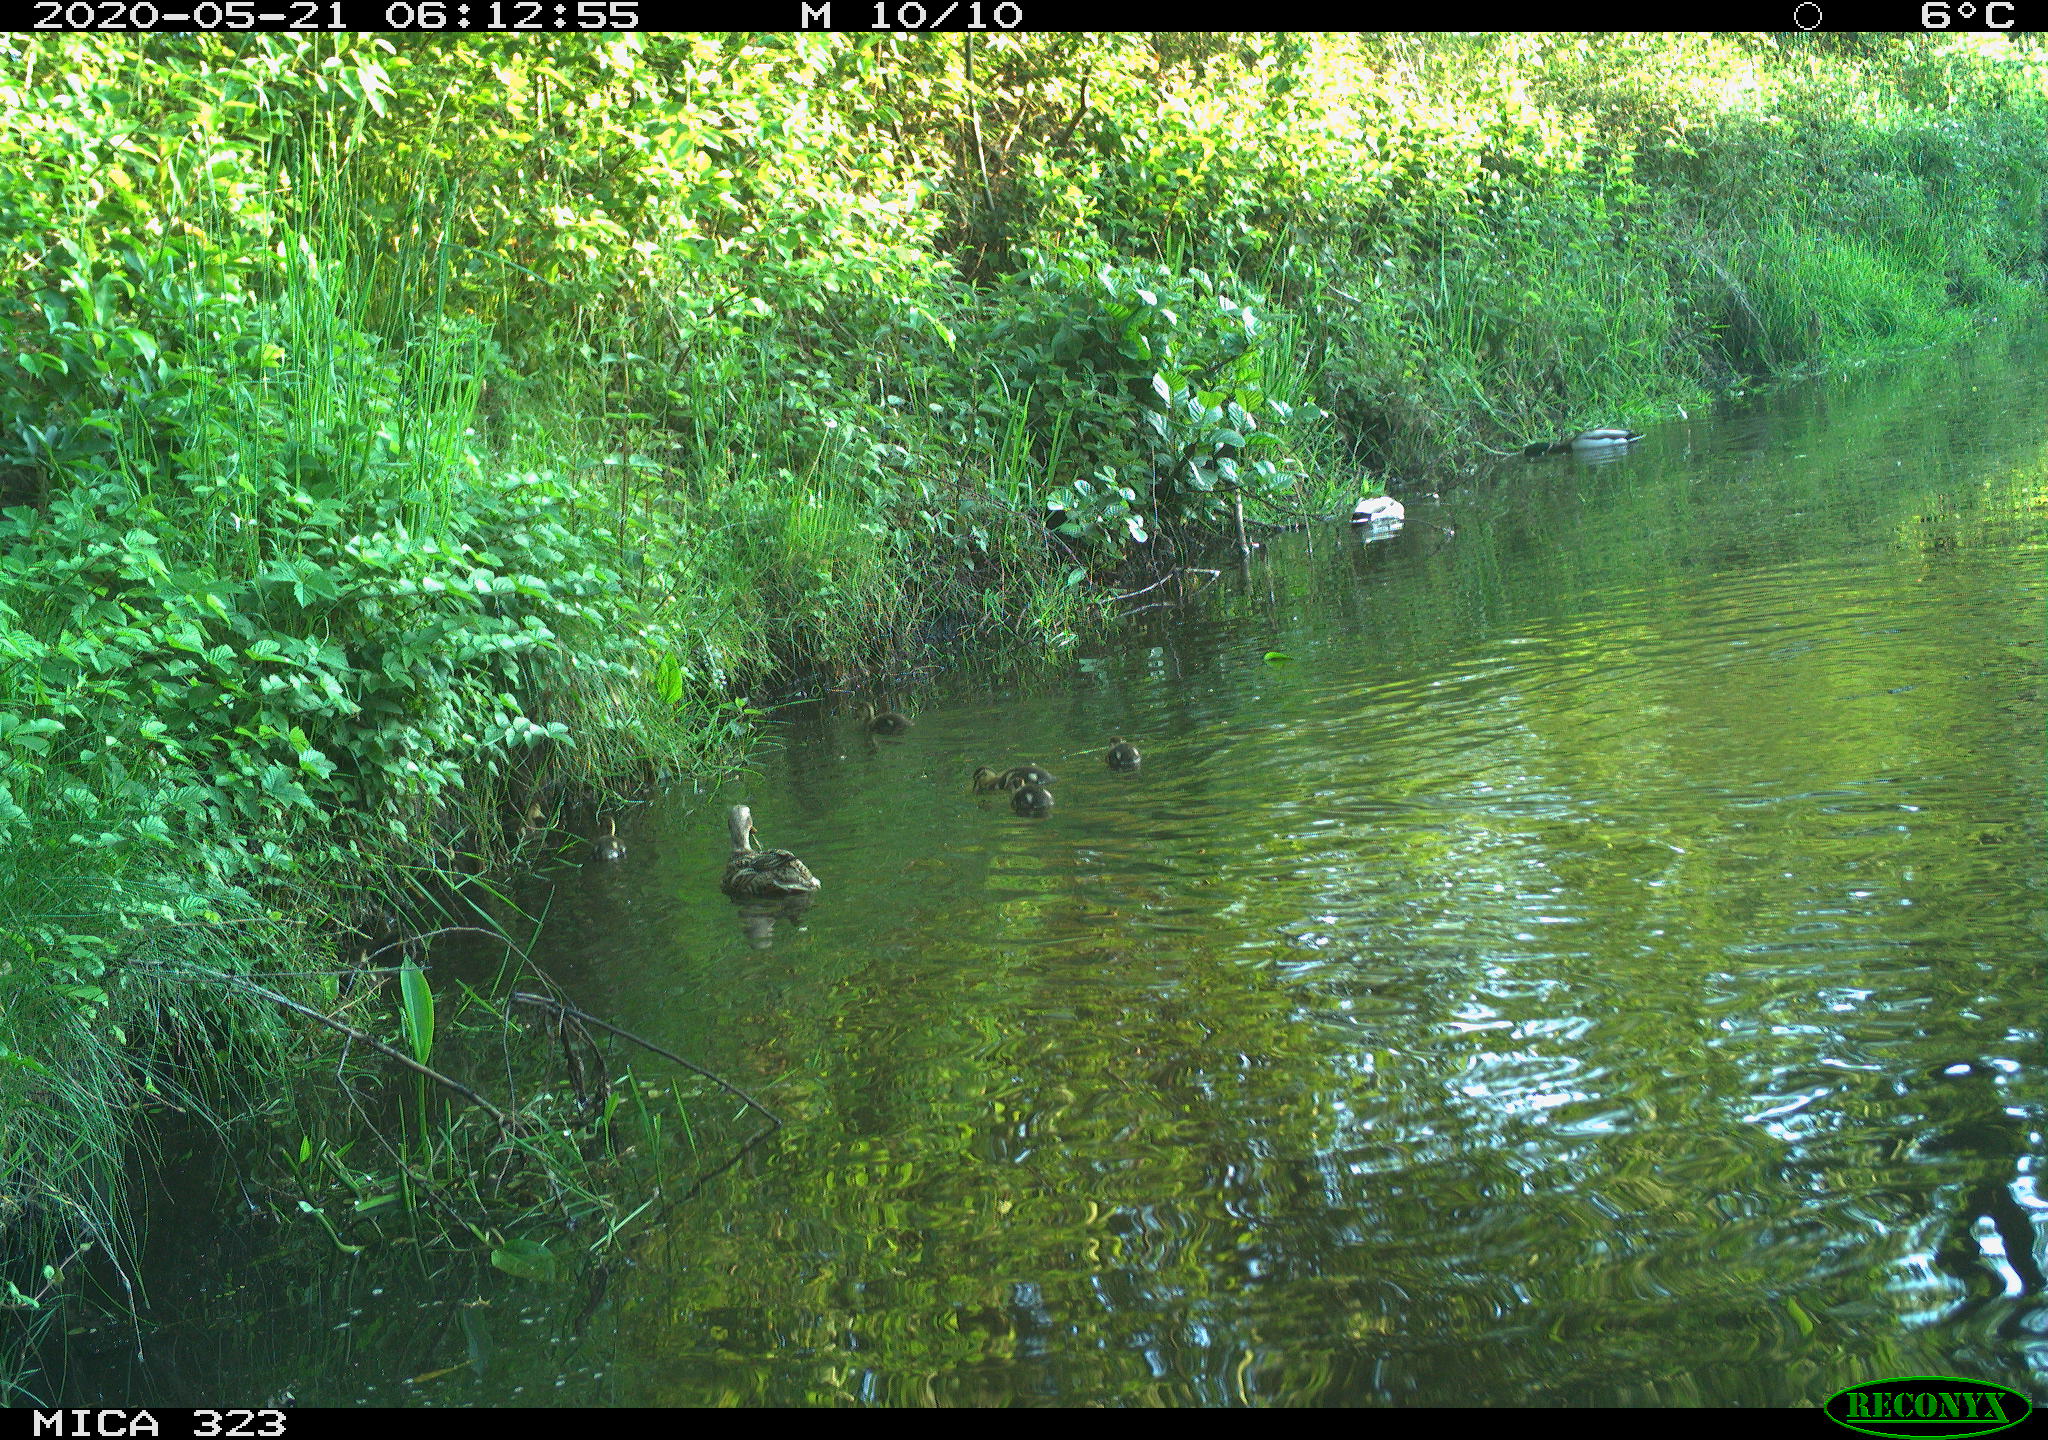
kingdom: Animalia
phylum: Chordata
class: Aves
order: Anseriformes
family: Anatidae
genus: Anas
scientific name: Anas platyrhynchos
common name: Mallard
